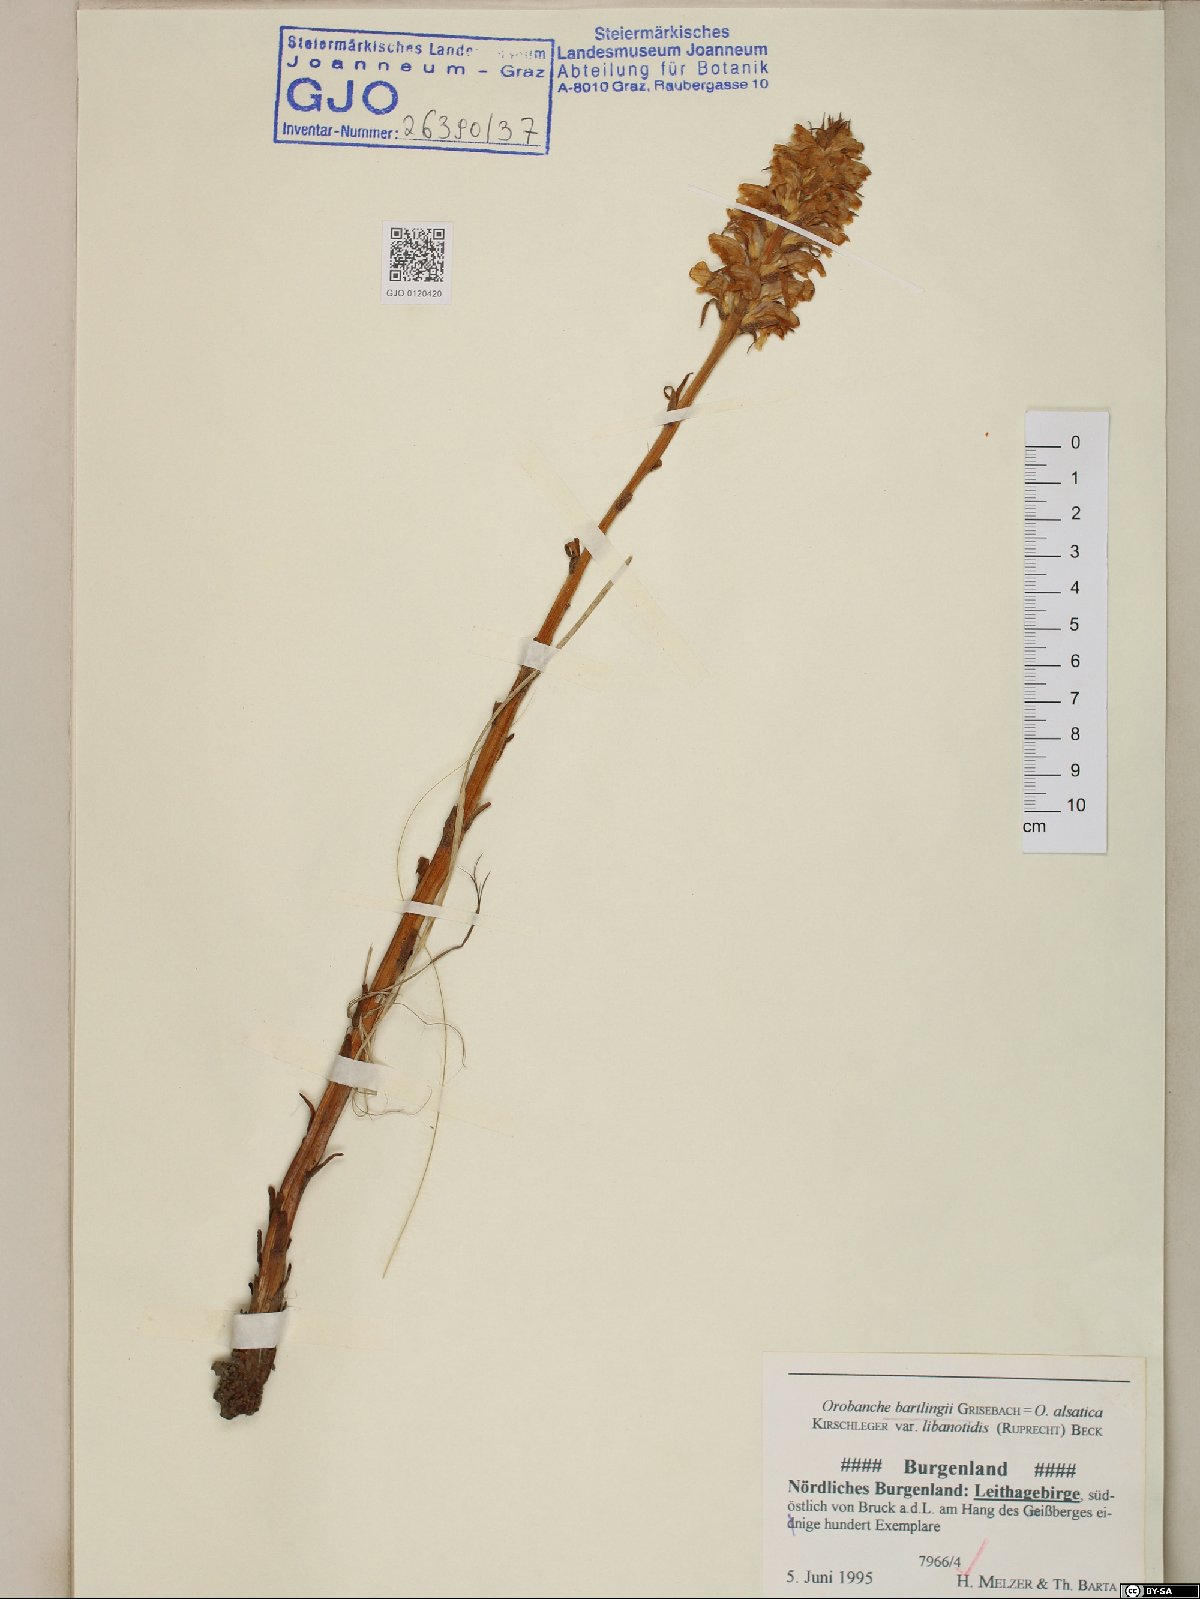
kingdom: Plantae
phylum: Tracheophyta
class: Magnoliopsida
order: Lamiales
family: Orobanchaceae
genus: Orobanche
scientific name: Orobanche alsatica
